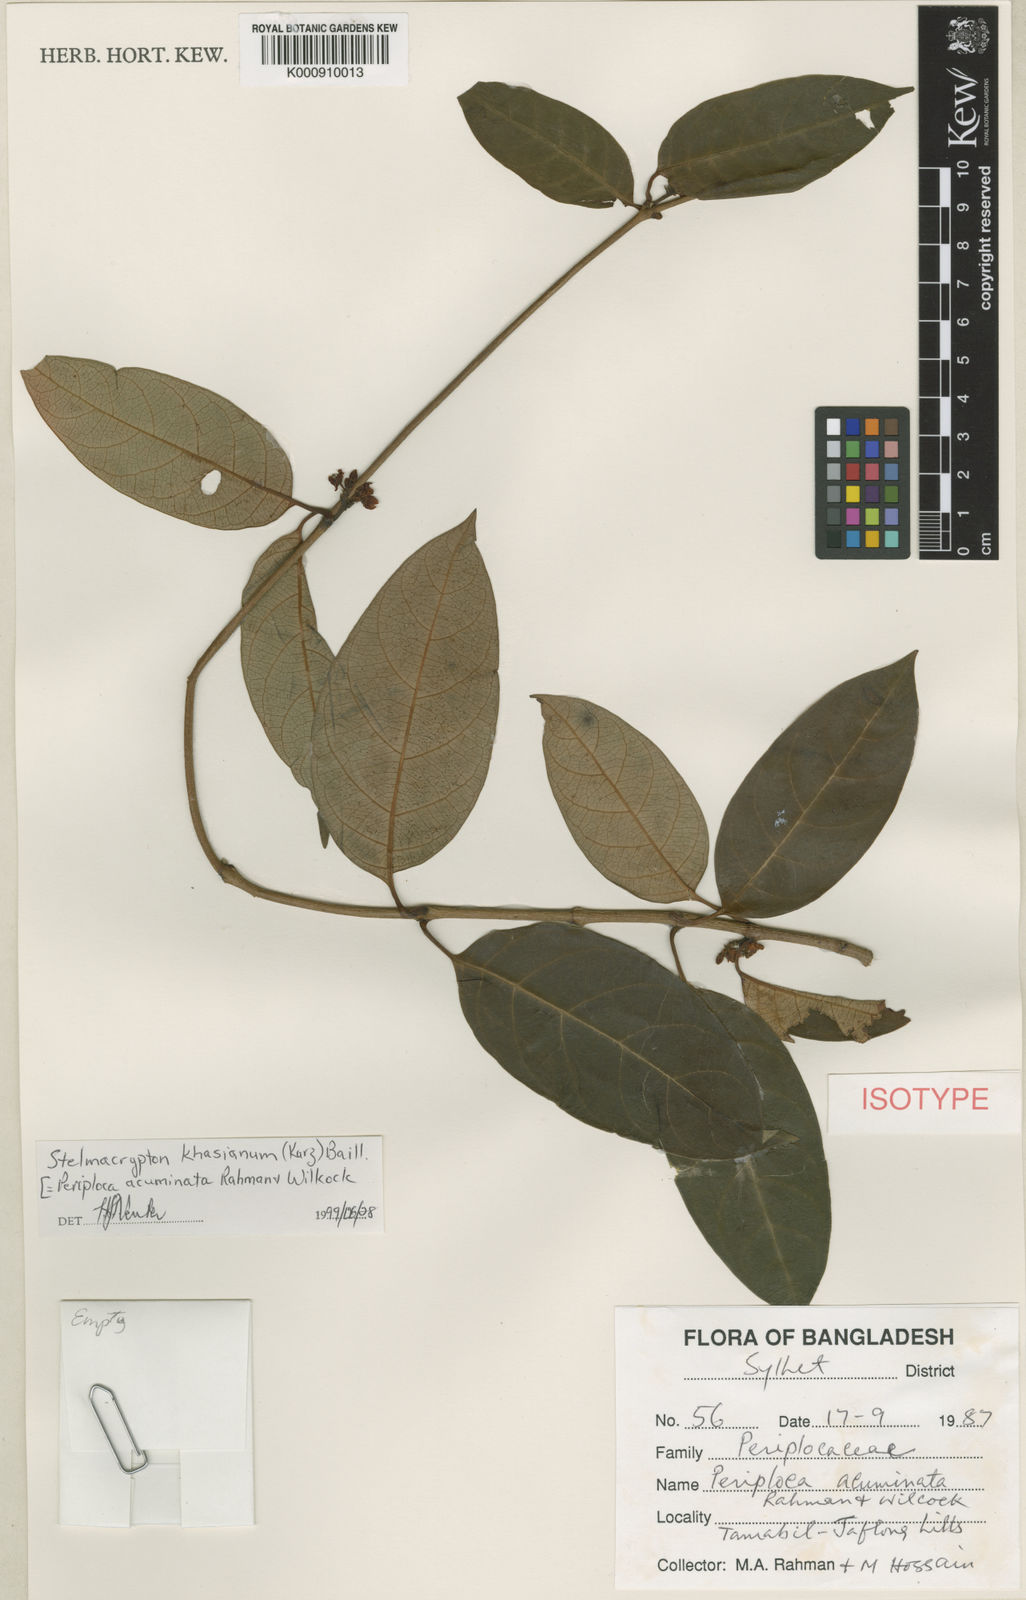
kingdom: Plantae
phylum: Tracheophyta
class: Magnoliopsida
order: Gentianales
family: Apocynaceae
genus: Decalepis
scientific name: Decalepis khasiana
